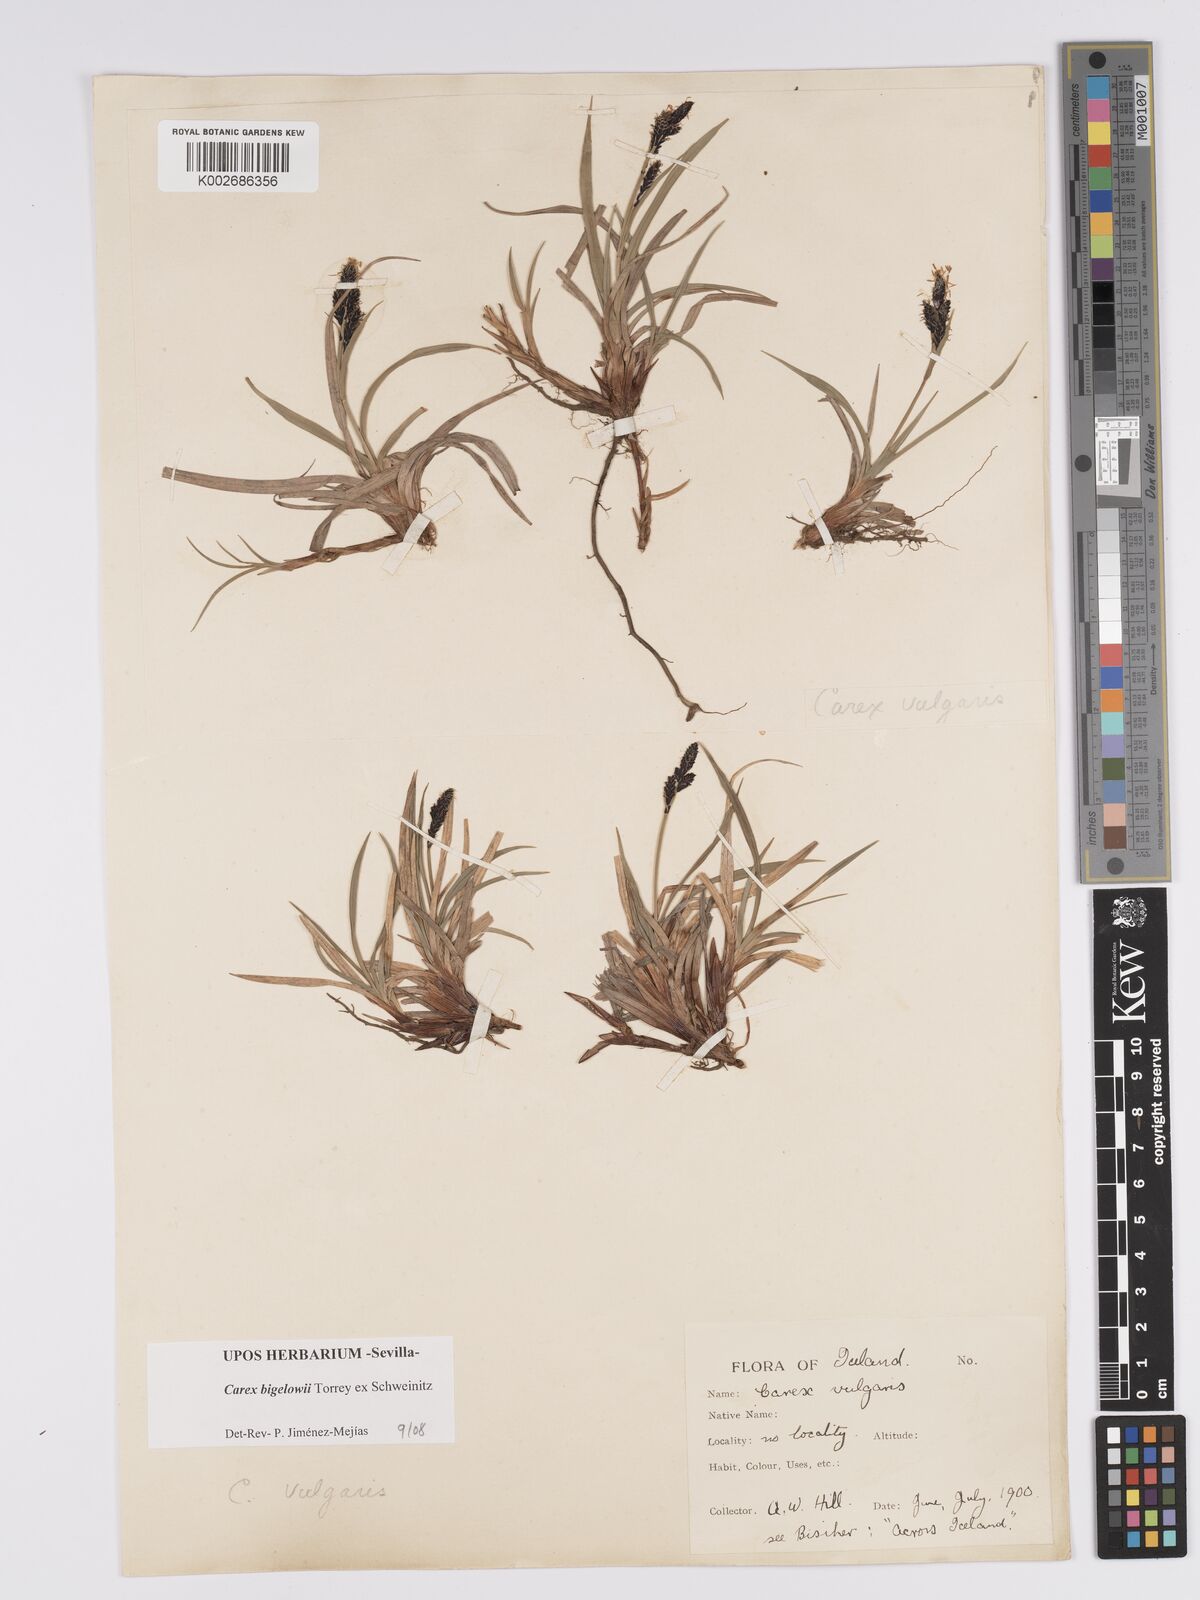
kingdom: Plantae
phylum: Tracheophyta
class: Liliopsida
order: Poales
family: Cyperaceae
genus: Carex
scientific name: Carex bigelowii
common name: Stiff sedge
